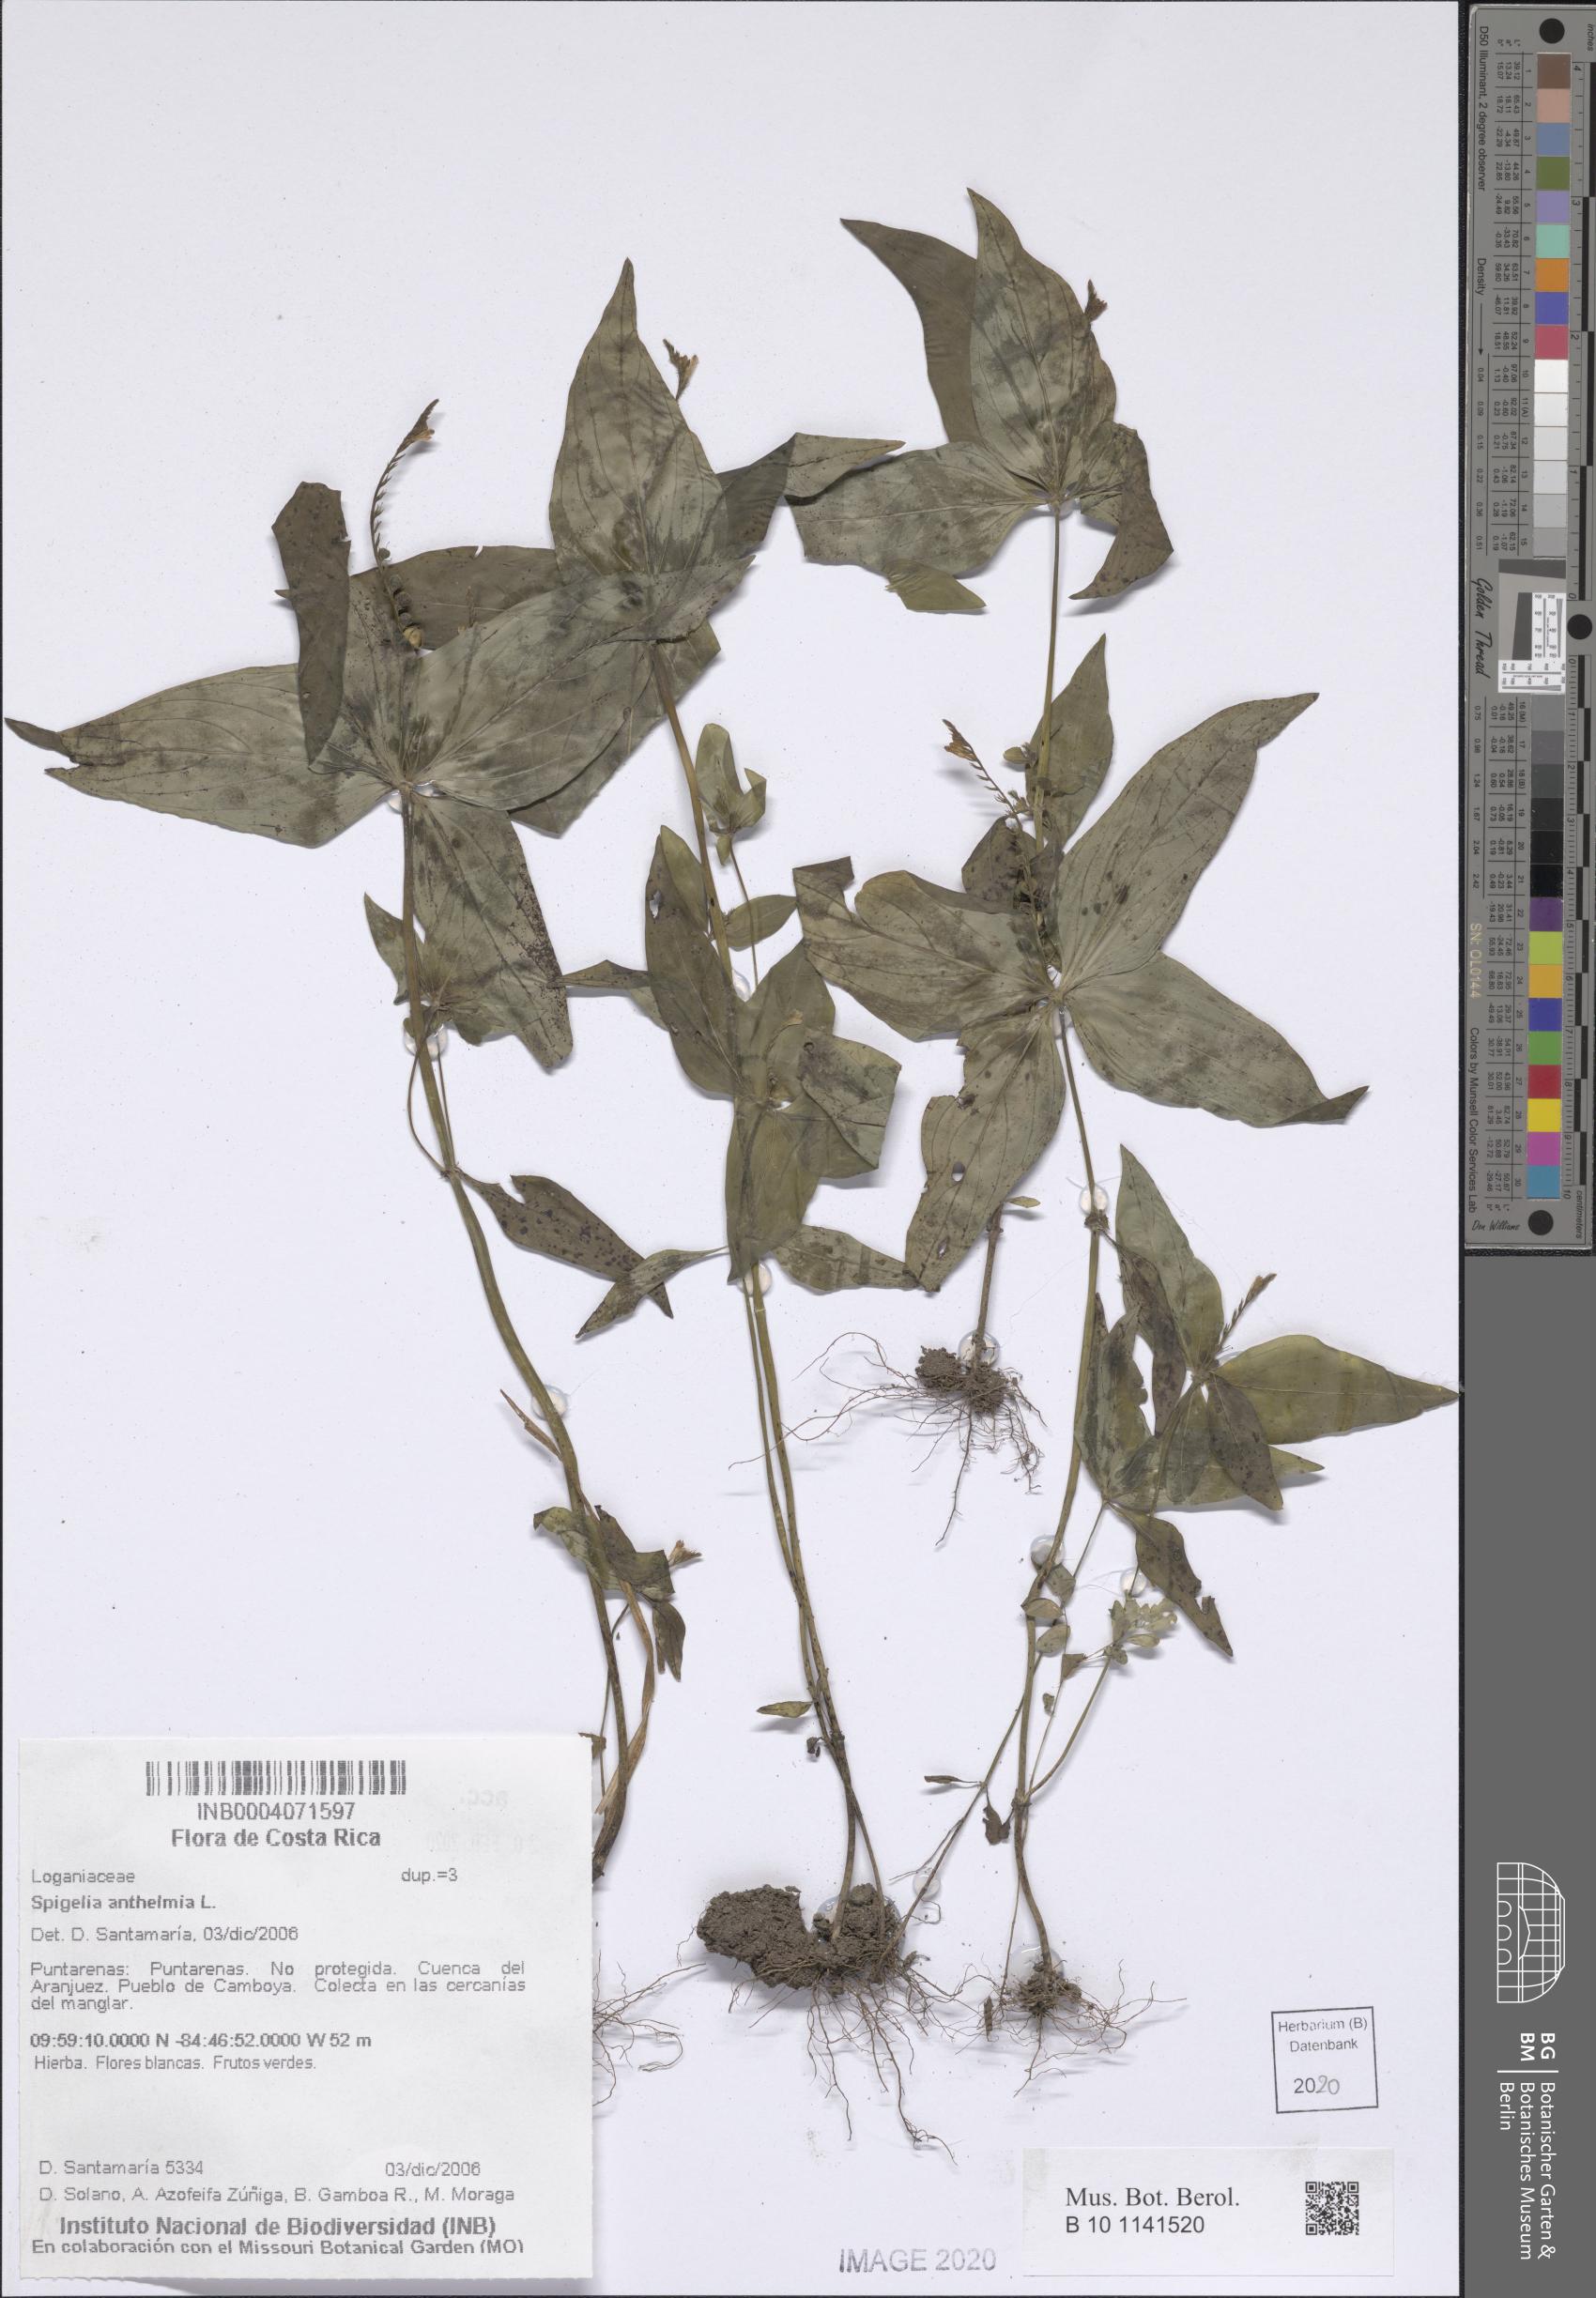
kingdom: Plantae
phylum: Tracheophyta
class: Magnoliopsida
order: Gentianales
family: Loganiaceae
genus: Spigelia
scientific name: Spigelia anthelmia
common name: West indian-pink
